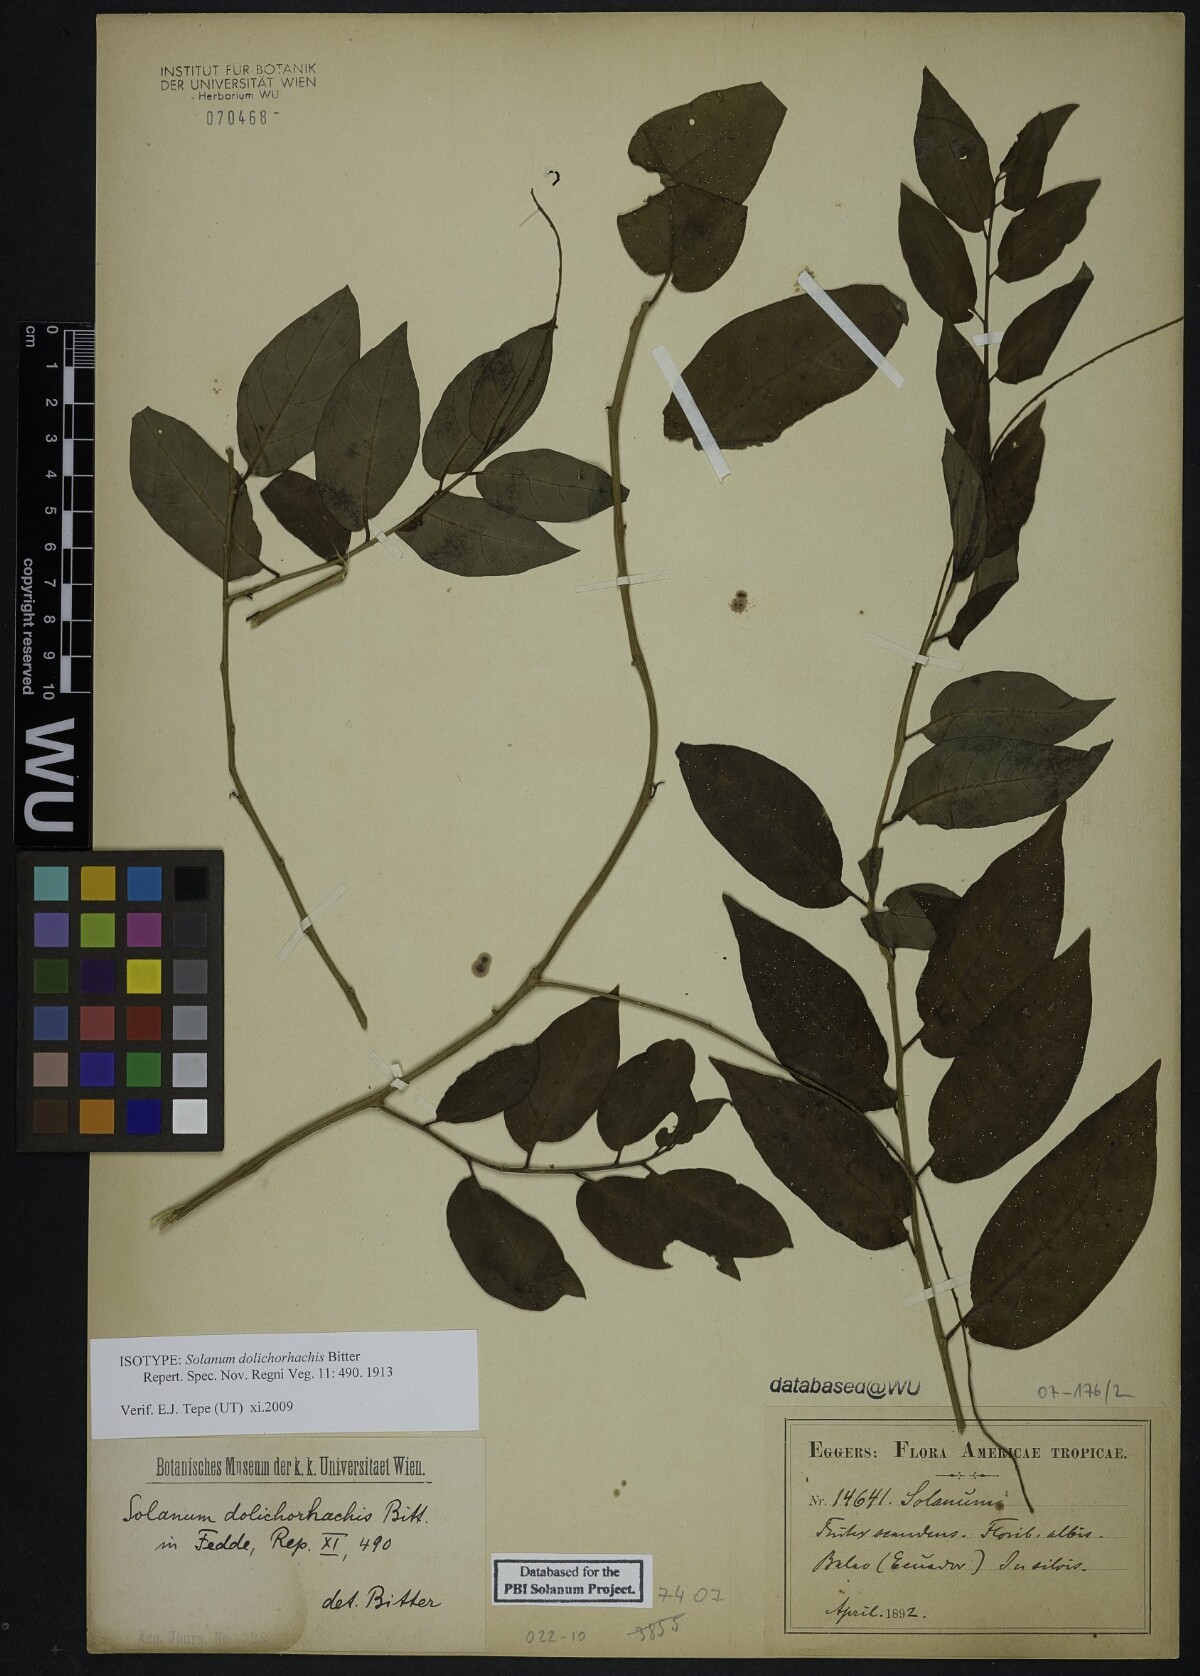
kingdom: Plantae
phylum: Tracheophyta
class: Magnoliopsida
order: Solanales
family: Solanaceae
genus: Solanum
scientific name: Solanum dolichorhachis
